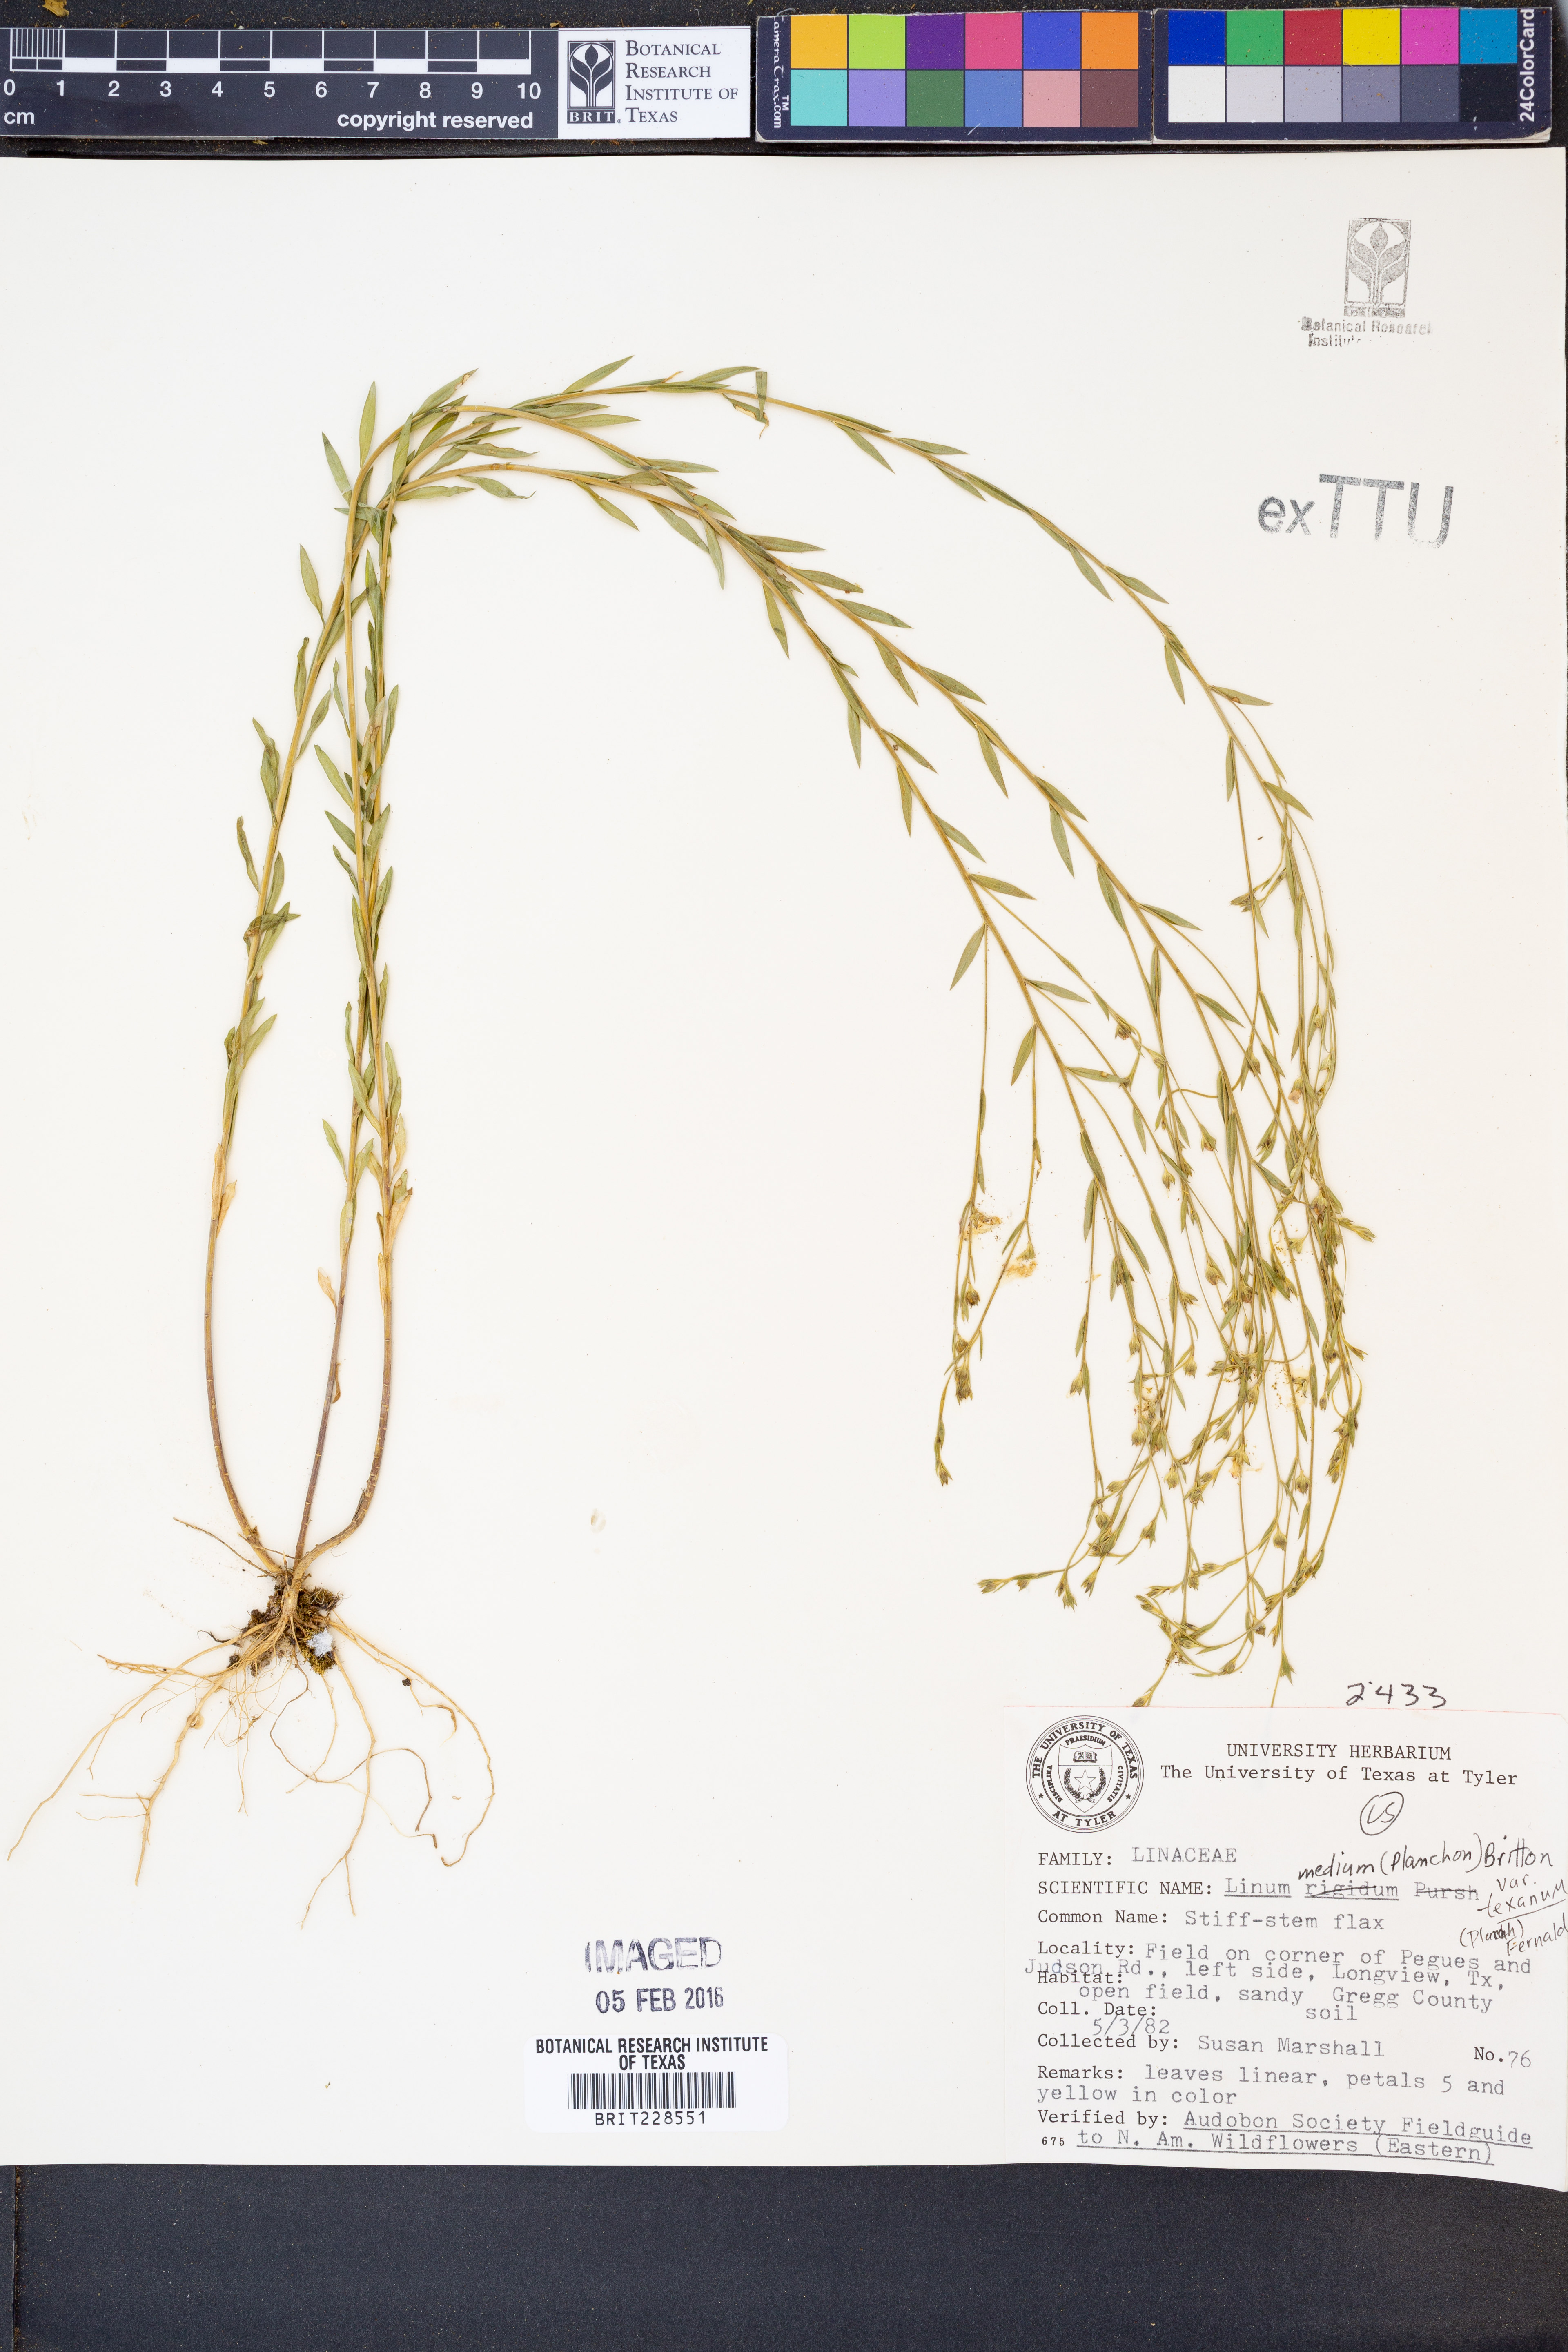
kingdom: Plantae
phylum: Tracheophyta
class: Magnoliopsida
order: Malpighiales
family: Linaceae
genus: Linum
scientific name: Linum medium
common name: Stiff yellow flax
